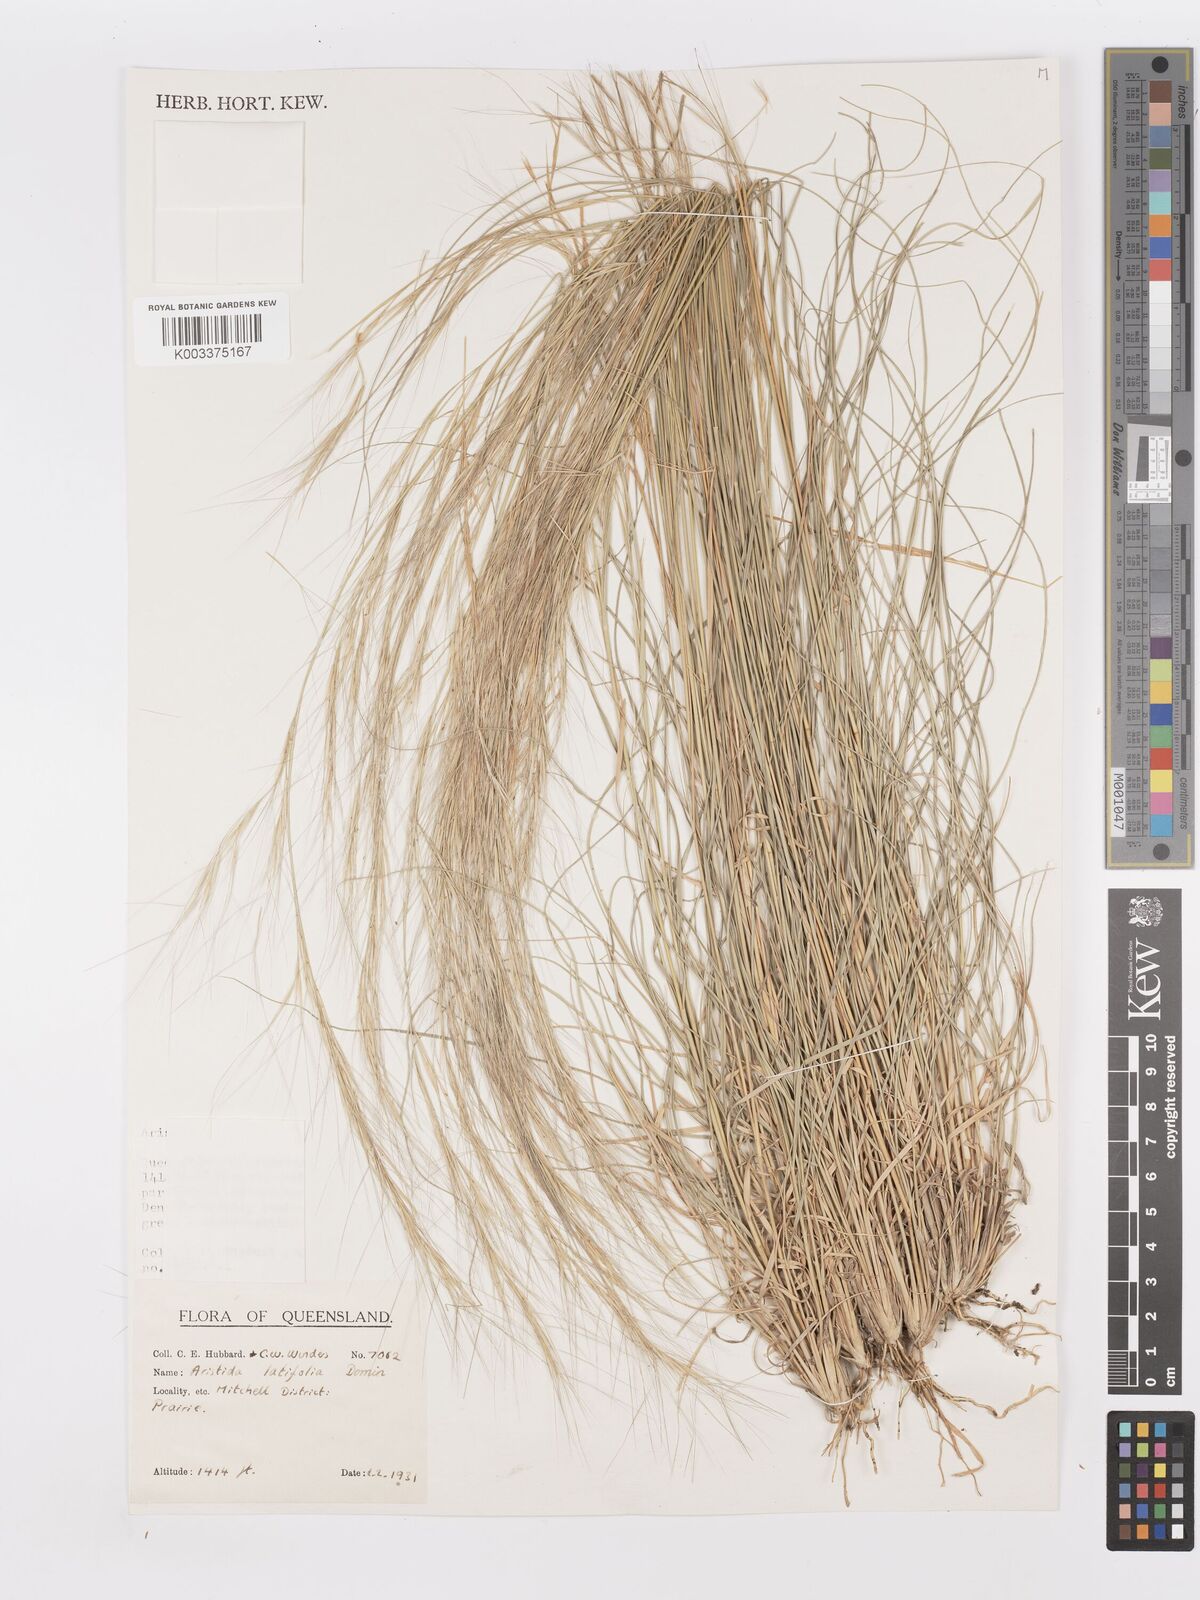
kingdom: Plantae
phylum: Tracheophyta
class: Liliopsida
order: Poales
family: Poaceae
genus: Aristida
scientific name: Aristida latifolia
